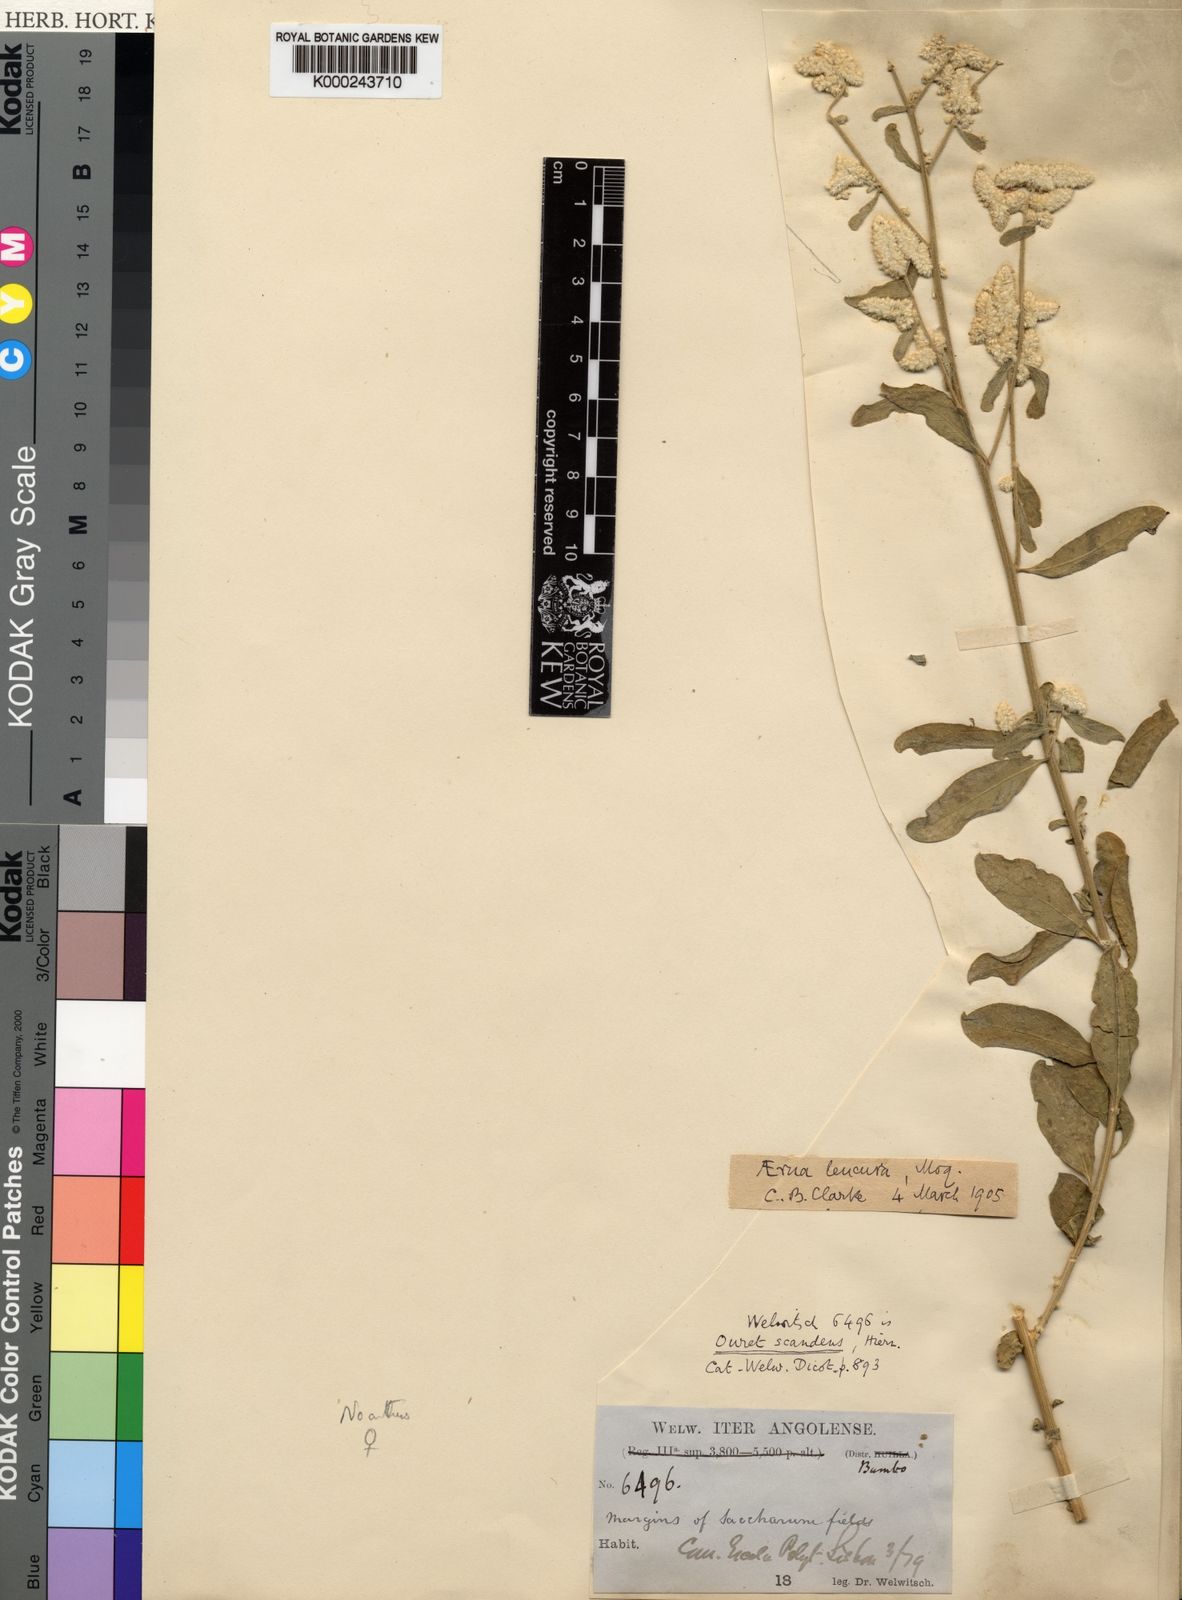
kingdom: Plantae
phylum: Tracheophyta
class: Magnoliopsida
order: Caryophyllales
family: Amaranthaceae
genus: Ouret
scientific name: Ouret leucura
